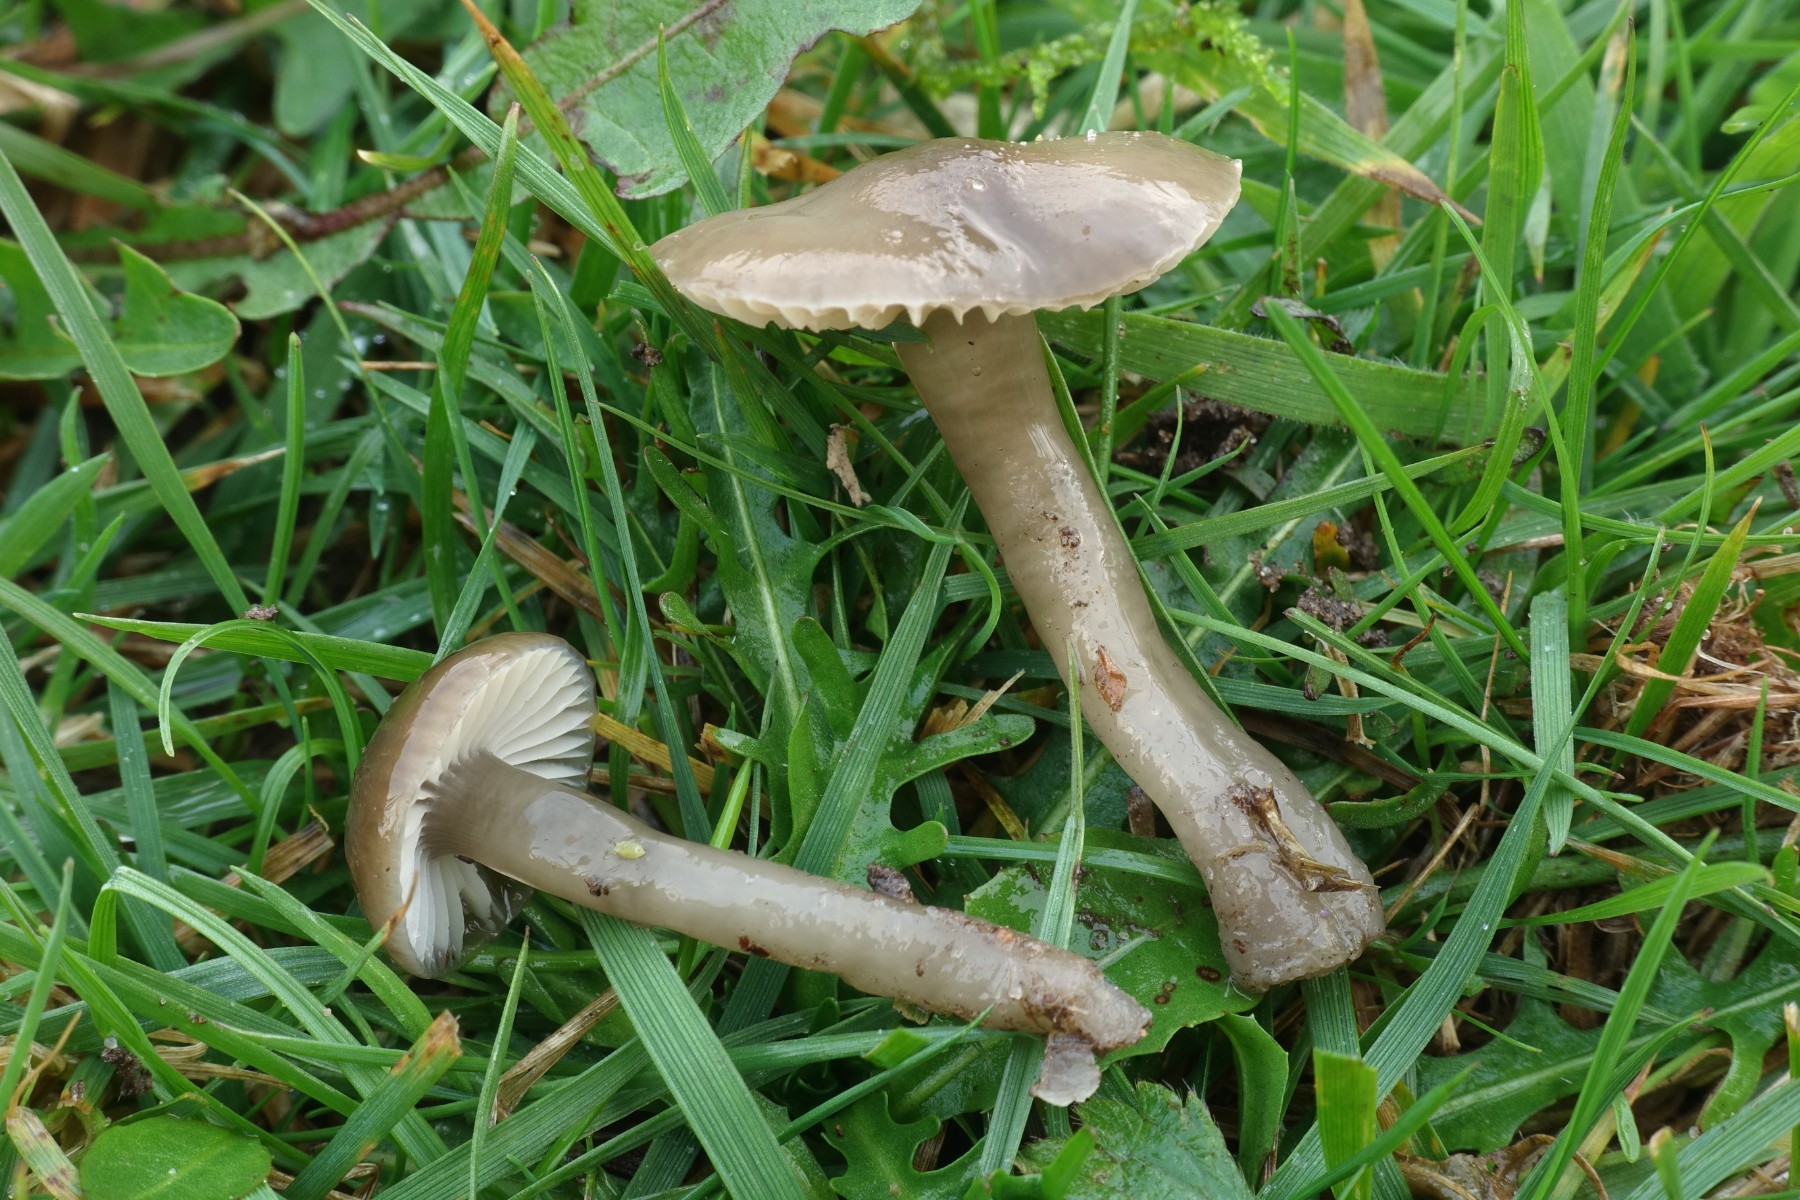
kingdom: Fungi
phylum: Basidiomycota
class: Agaricomycetes
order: Agaricales
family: Hygrophoraceae
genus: Gliophorus
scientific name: Gliophorus irrigatus
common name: slimet vokshat
